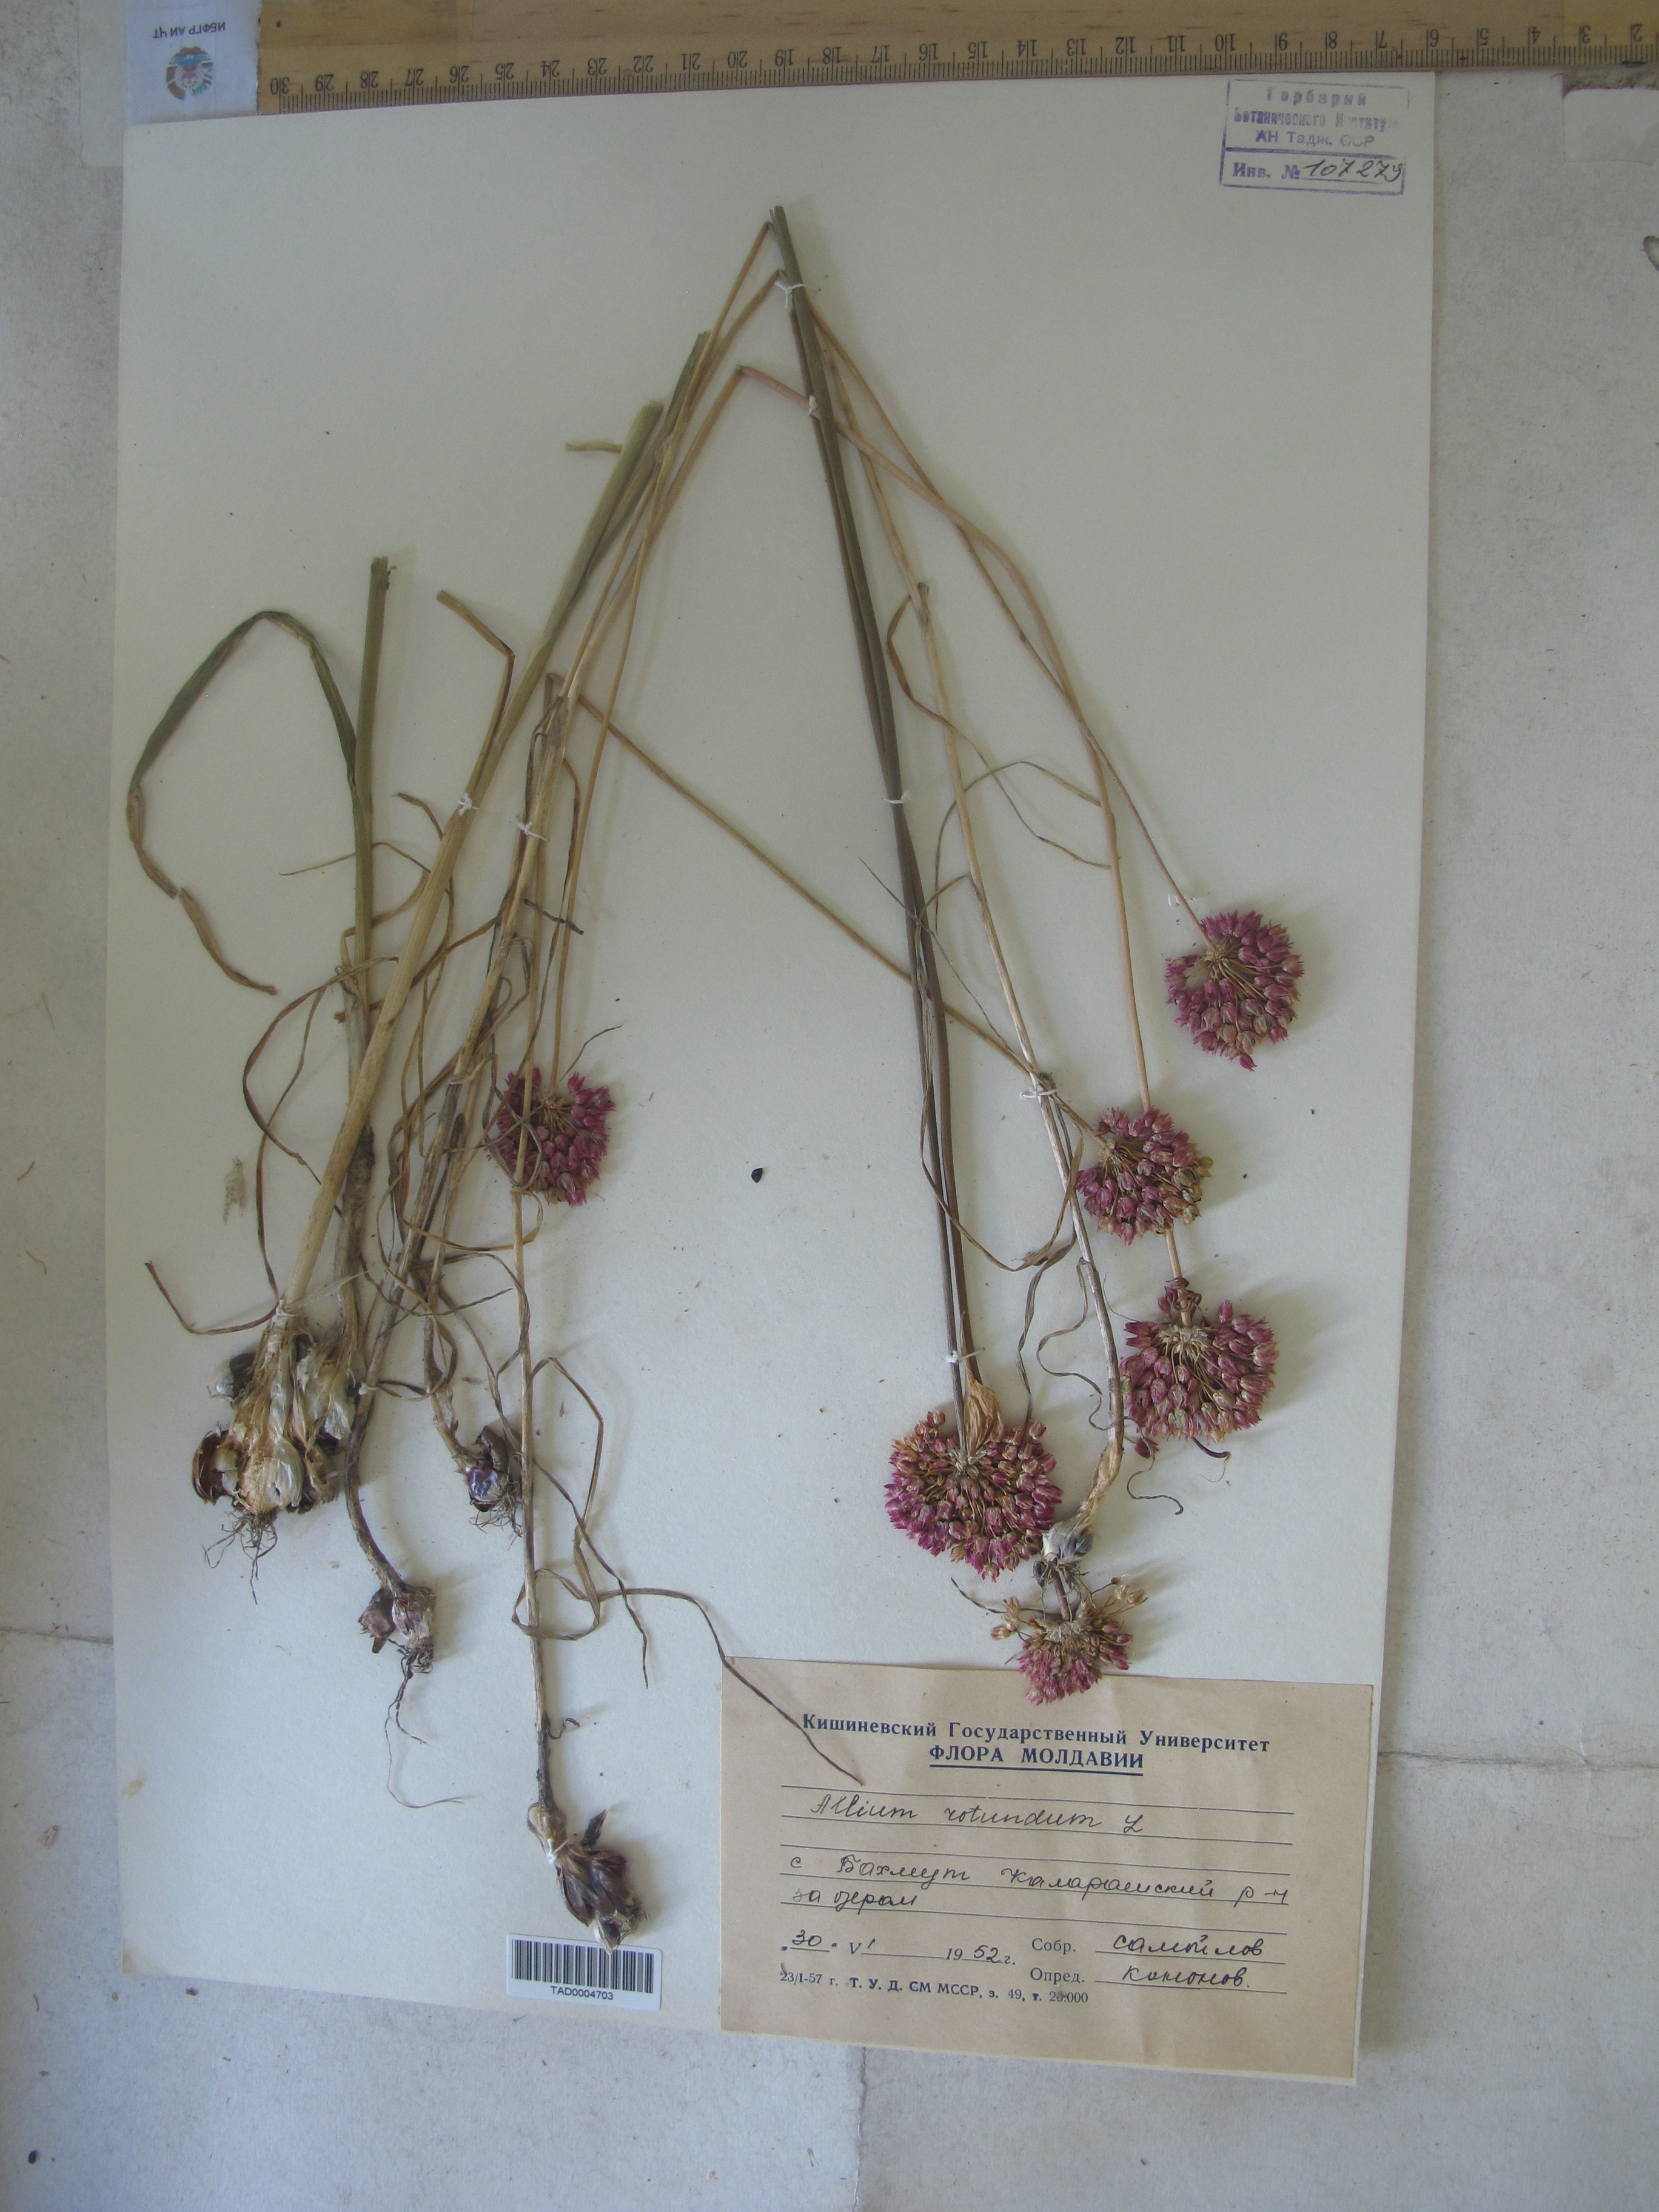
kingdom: Plantae
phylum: Tracheophyta
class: Liliopsida
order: Asparagales
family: Amaryllidaceae
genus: Allium
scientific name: Allium rotundum
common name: Sand leek
